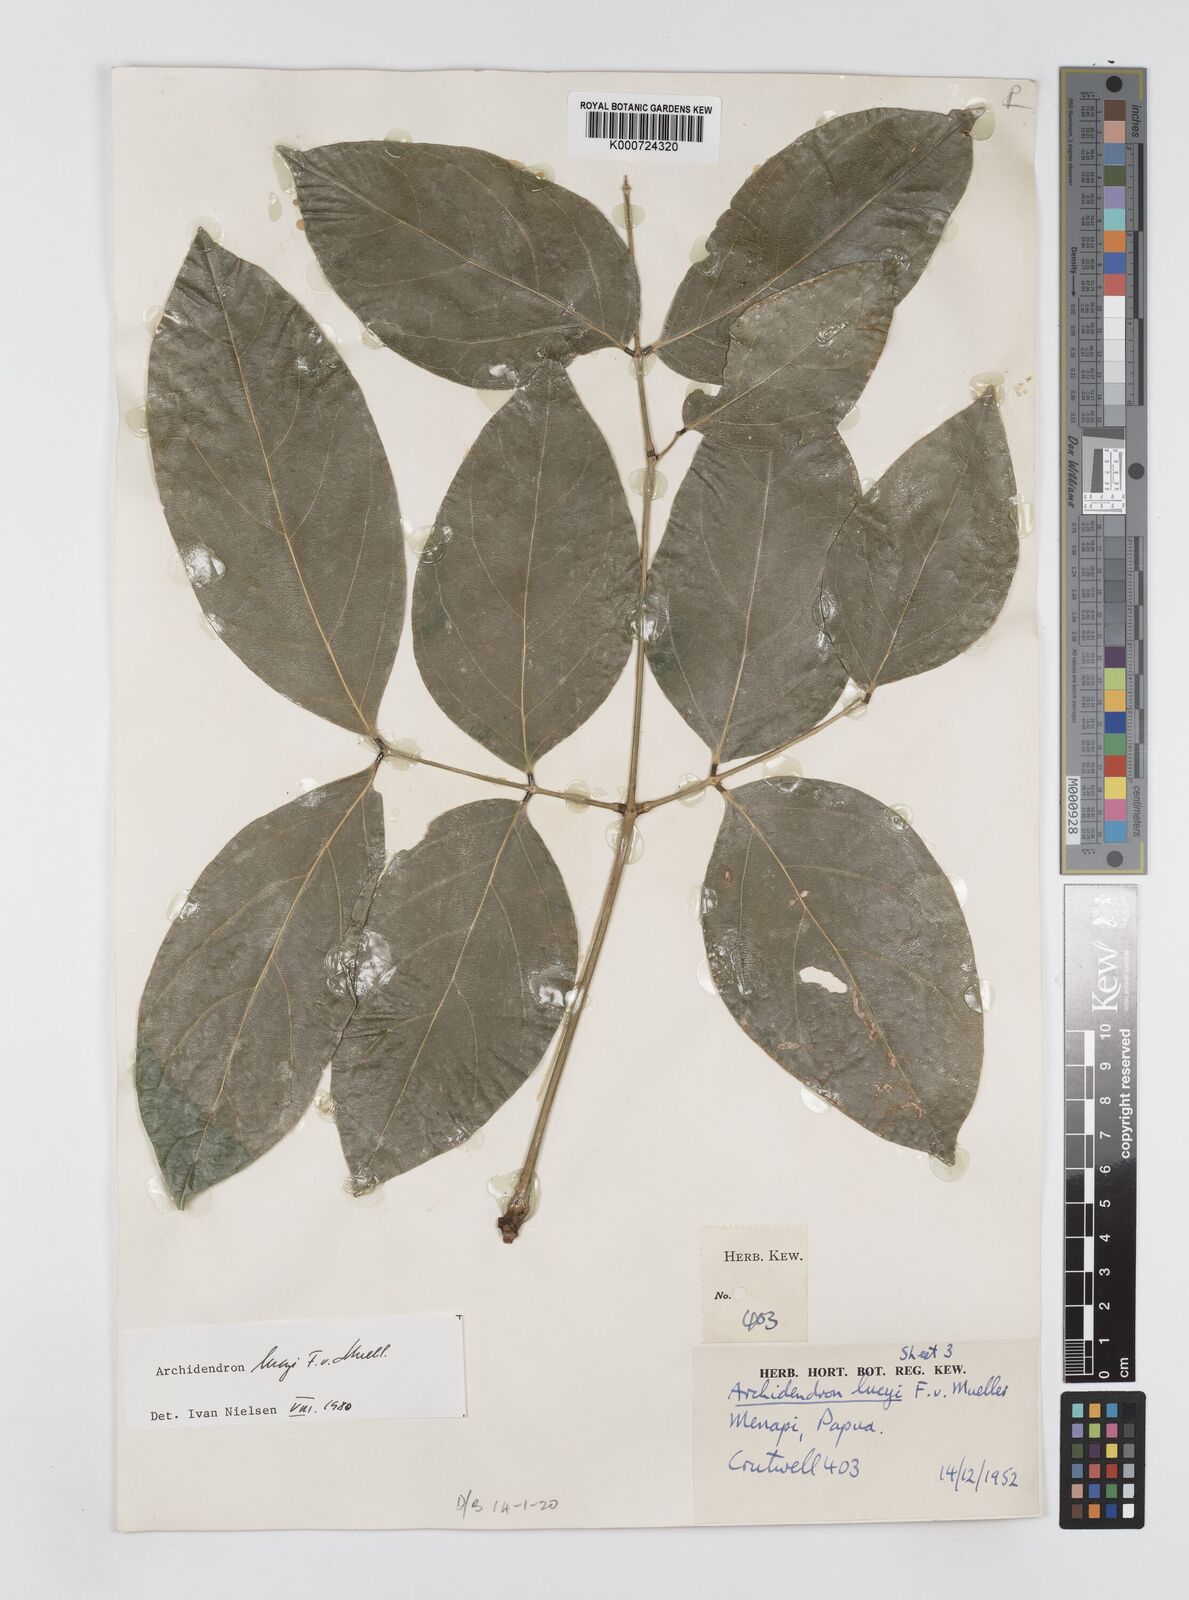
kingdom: Plantae
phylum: Tracheophyta
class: Magnoliopsida
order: Fabales
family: Fabaceae
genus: Archidendron
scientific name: Archidendron lucyi
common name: Scarlet bean
